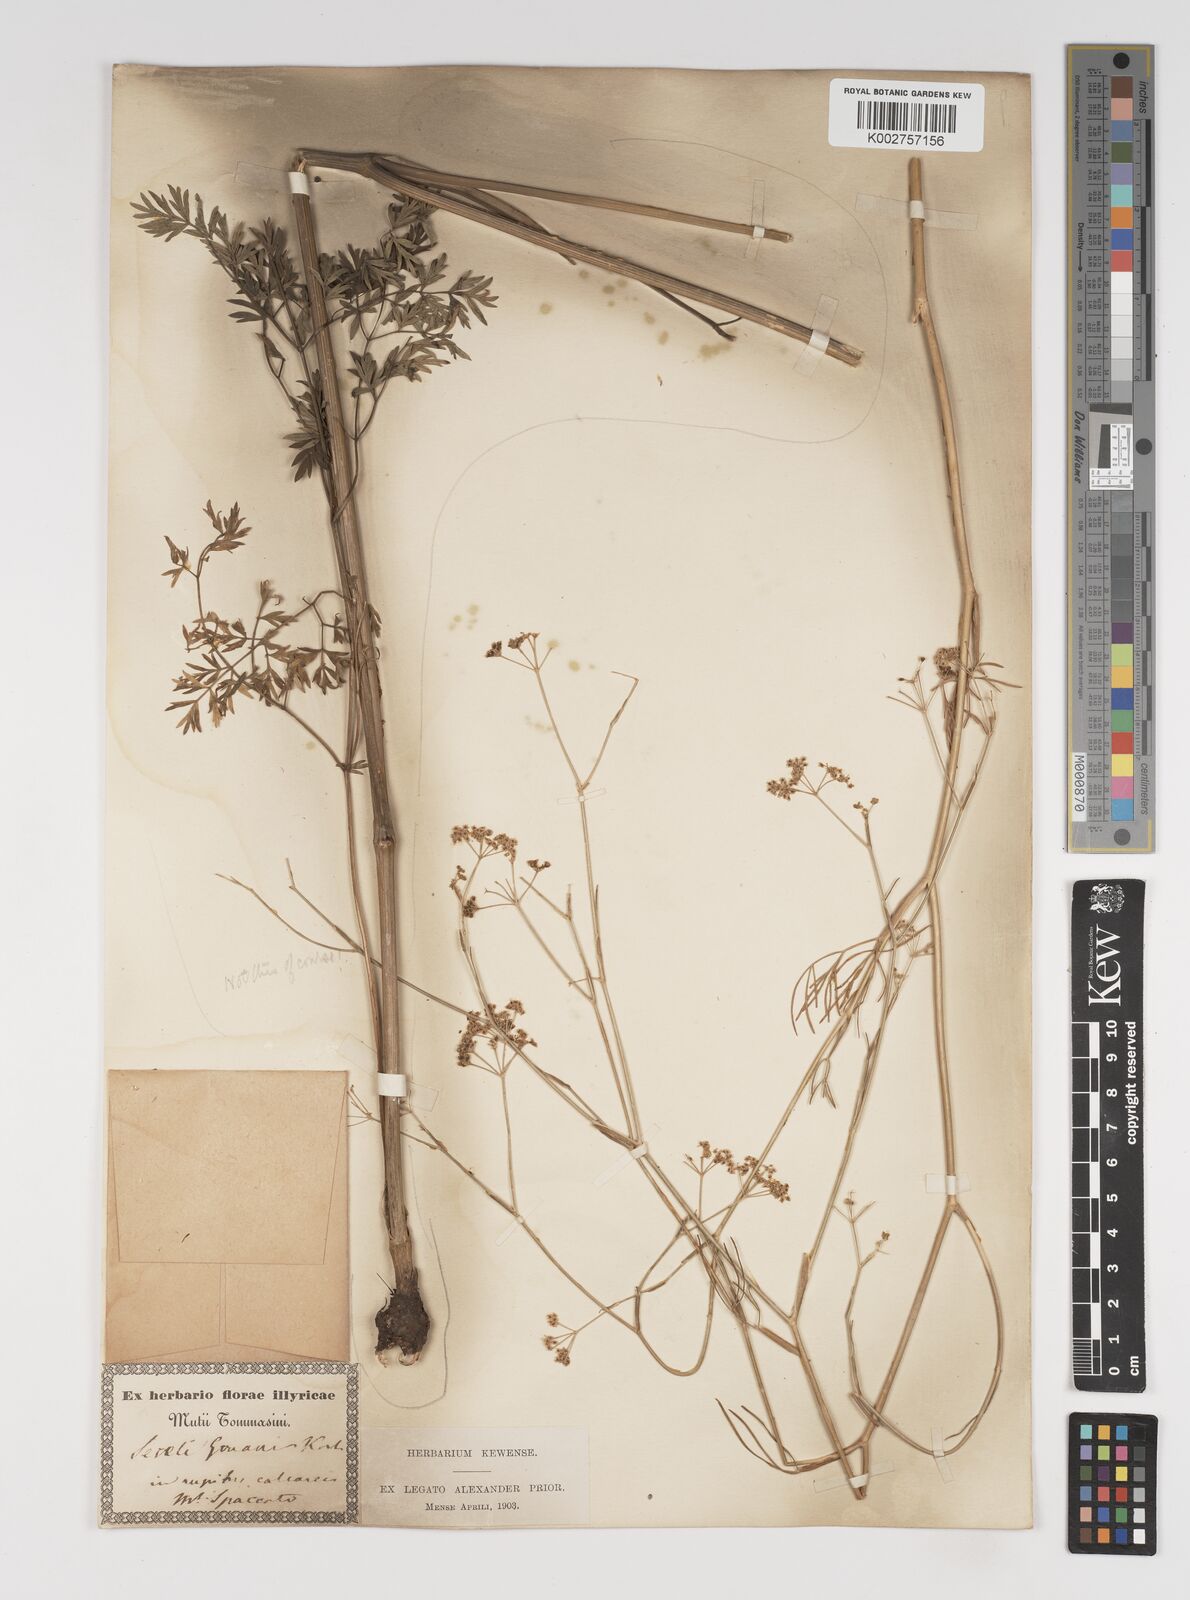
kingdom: Plantae
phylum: Tracheophyta
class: Magnoliopsida
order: Apiales
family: Apiaceae
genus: Seseli
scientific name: Seseli longifolium
